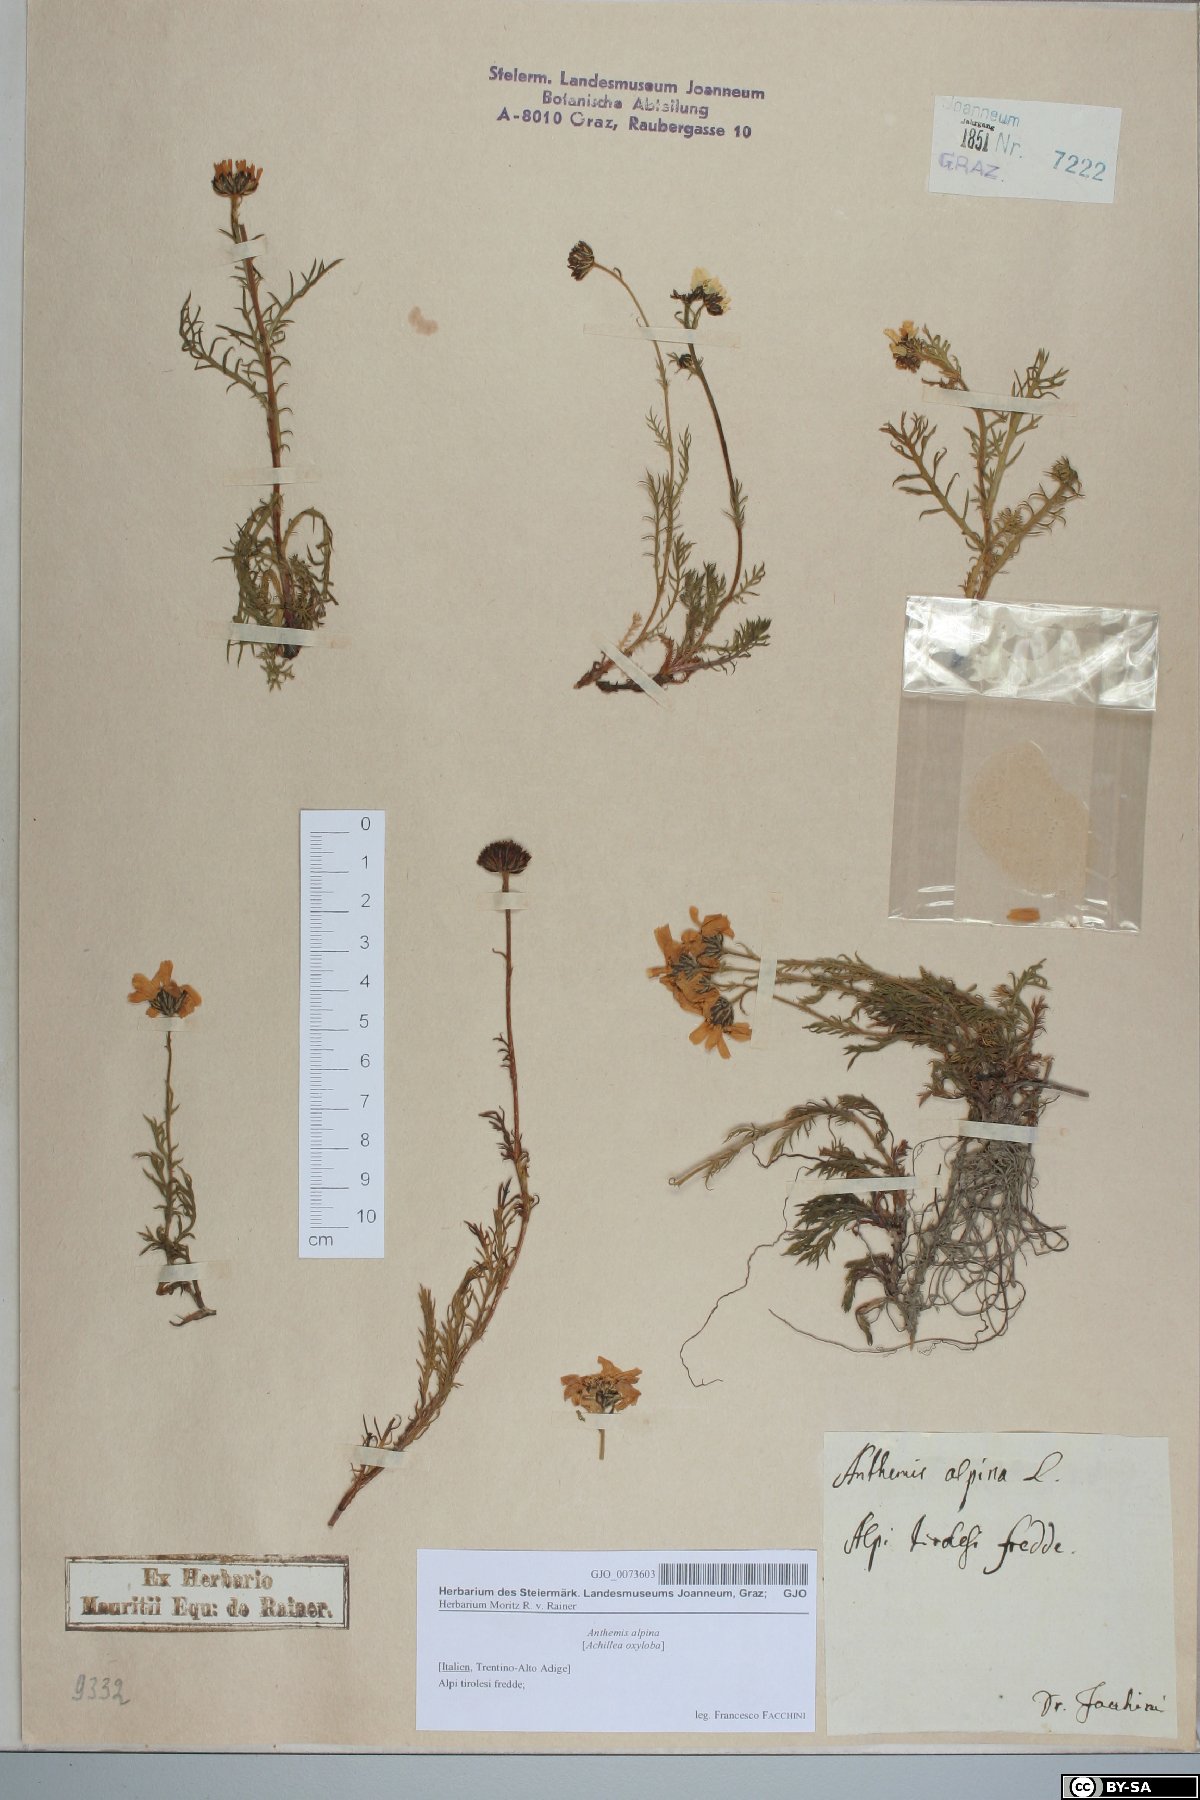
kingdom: Plantae
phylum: Tracheophyta
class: Magnoliopsida
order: Asterales
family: Asteraceae
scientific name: Asteraceae
